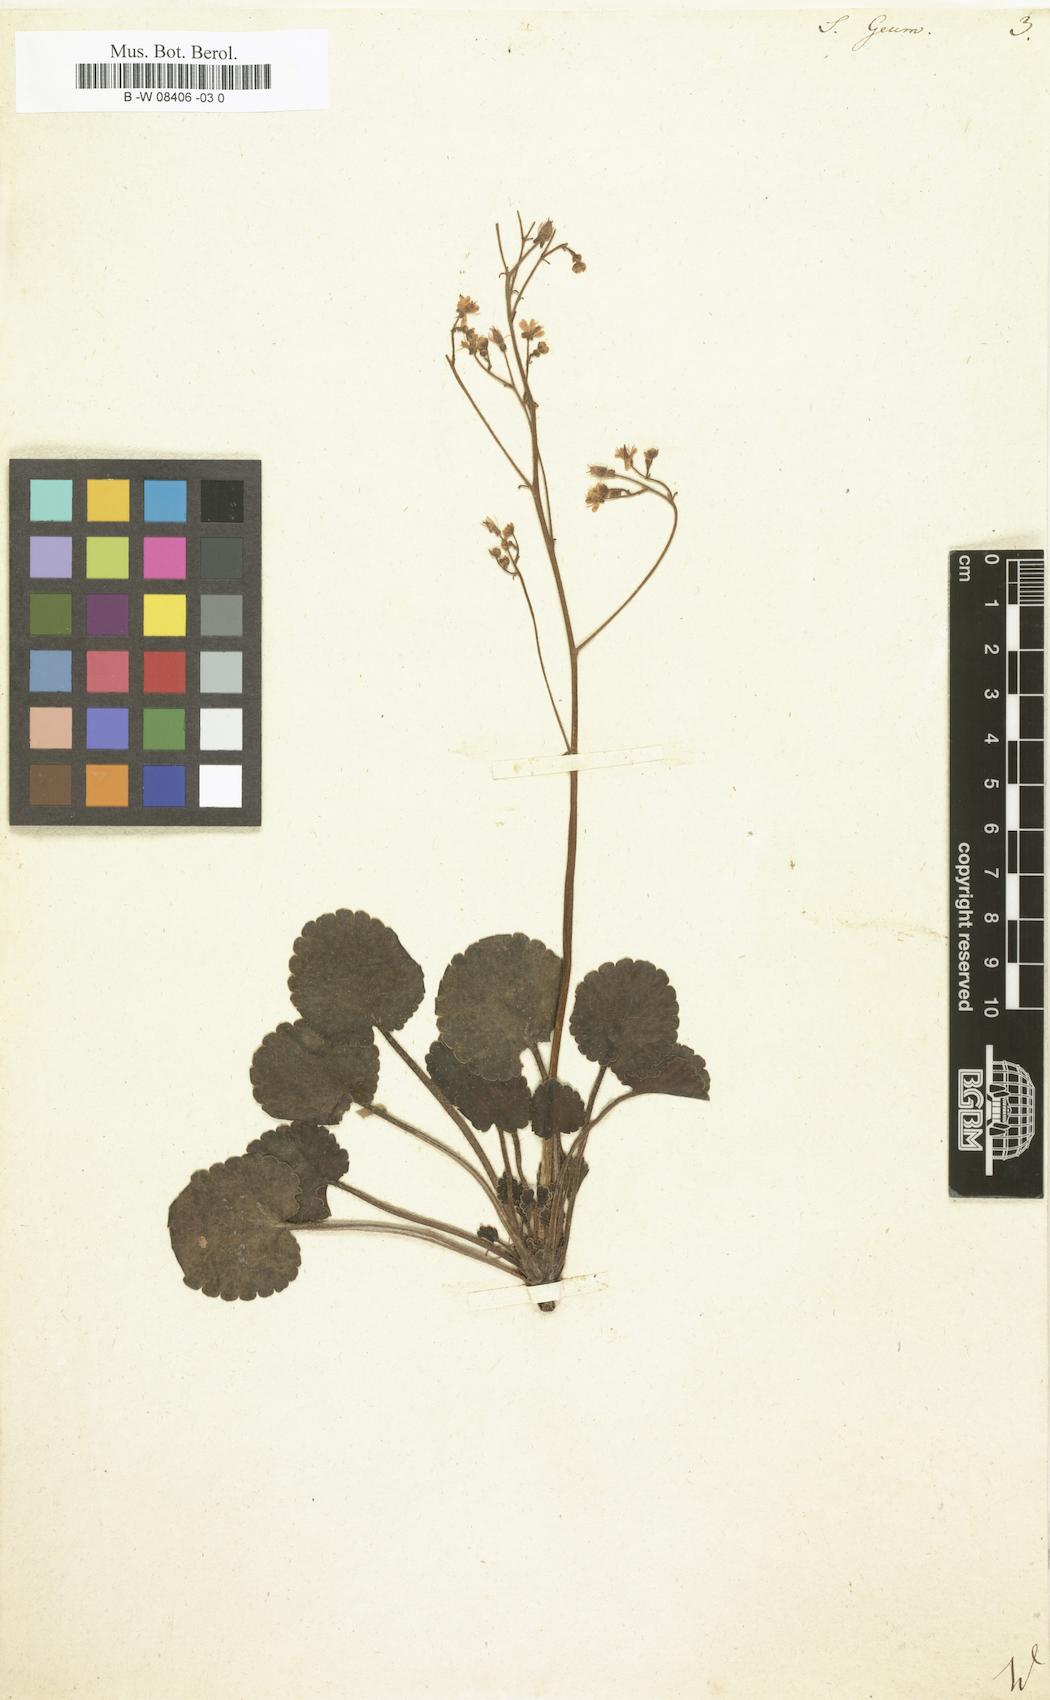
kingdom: Plantae
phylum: Tracheophyta
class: Magnoliopsida
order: Saxifragales
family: Saxifragaceae
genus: Saxifraga
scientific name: Saxifraga geum
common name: Geum saxifrage
